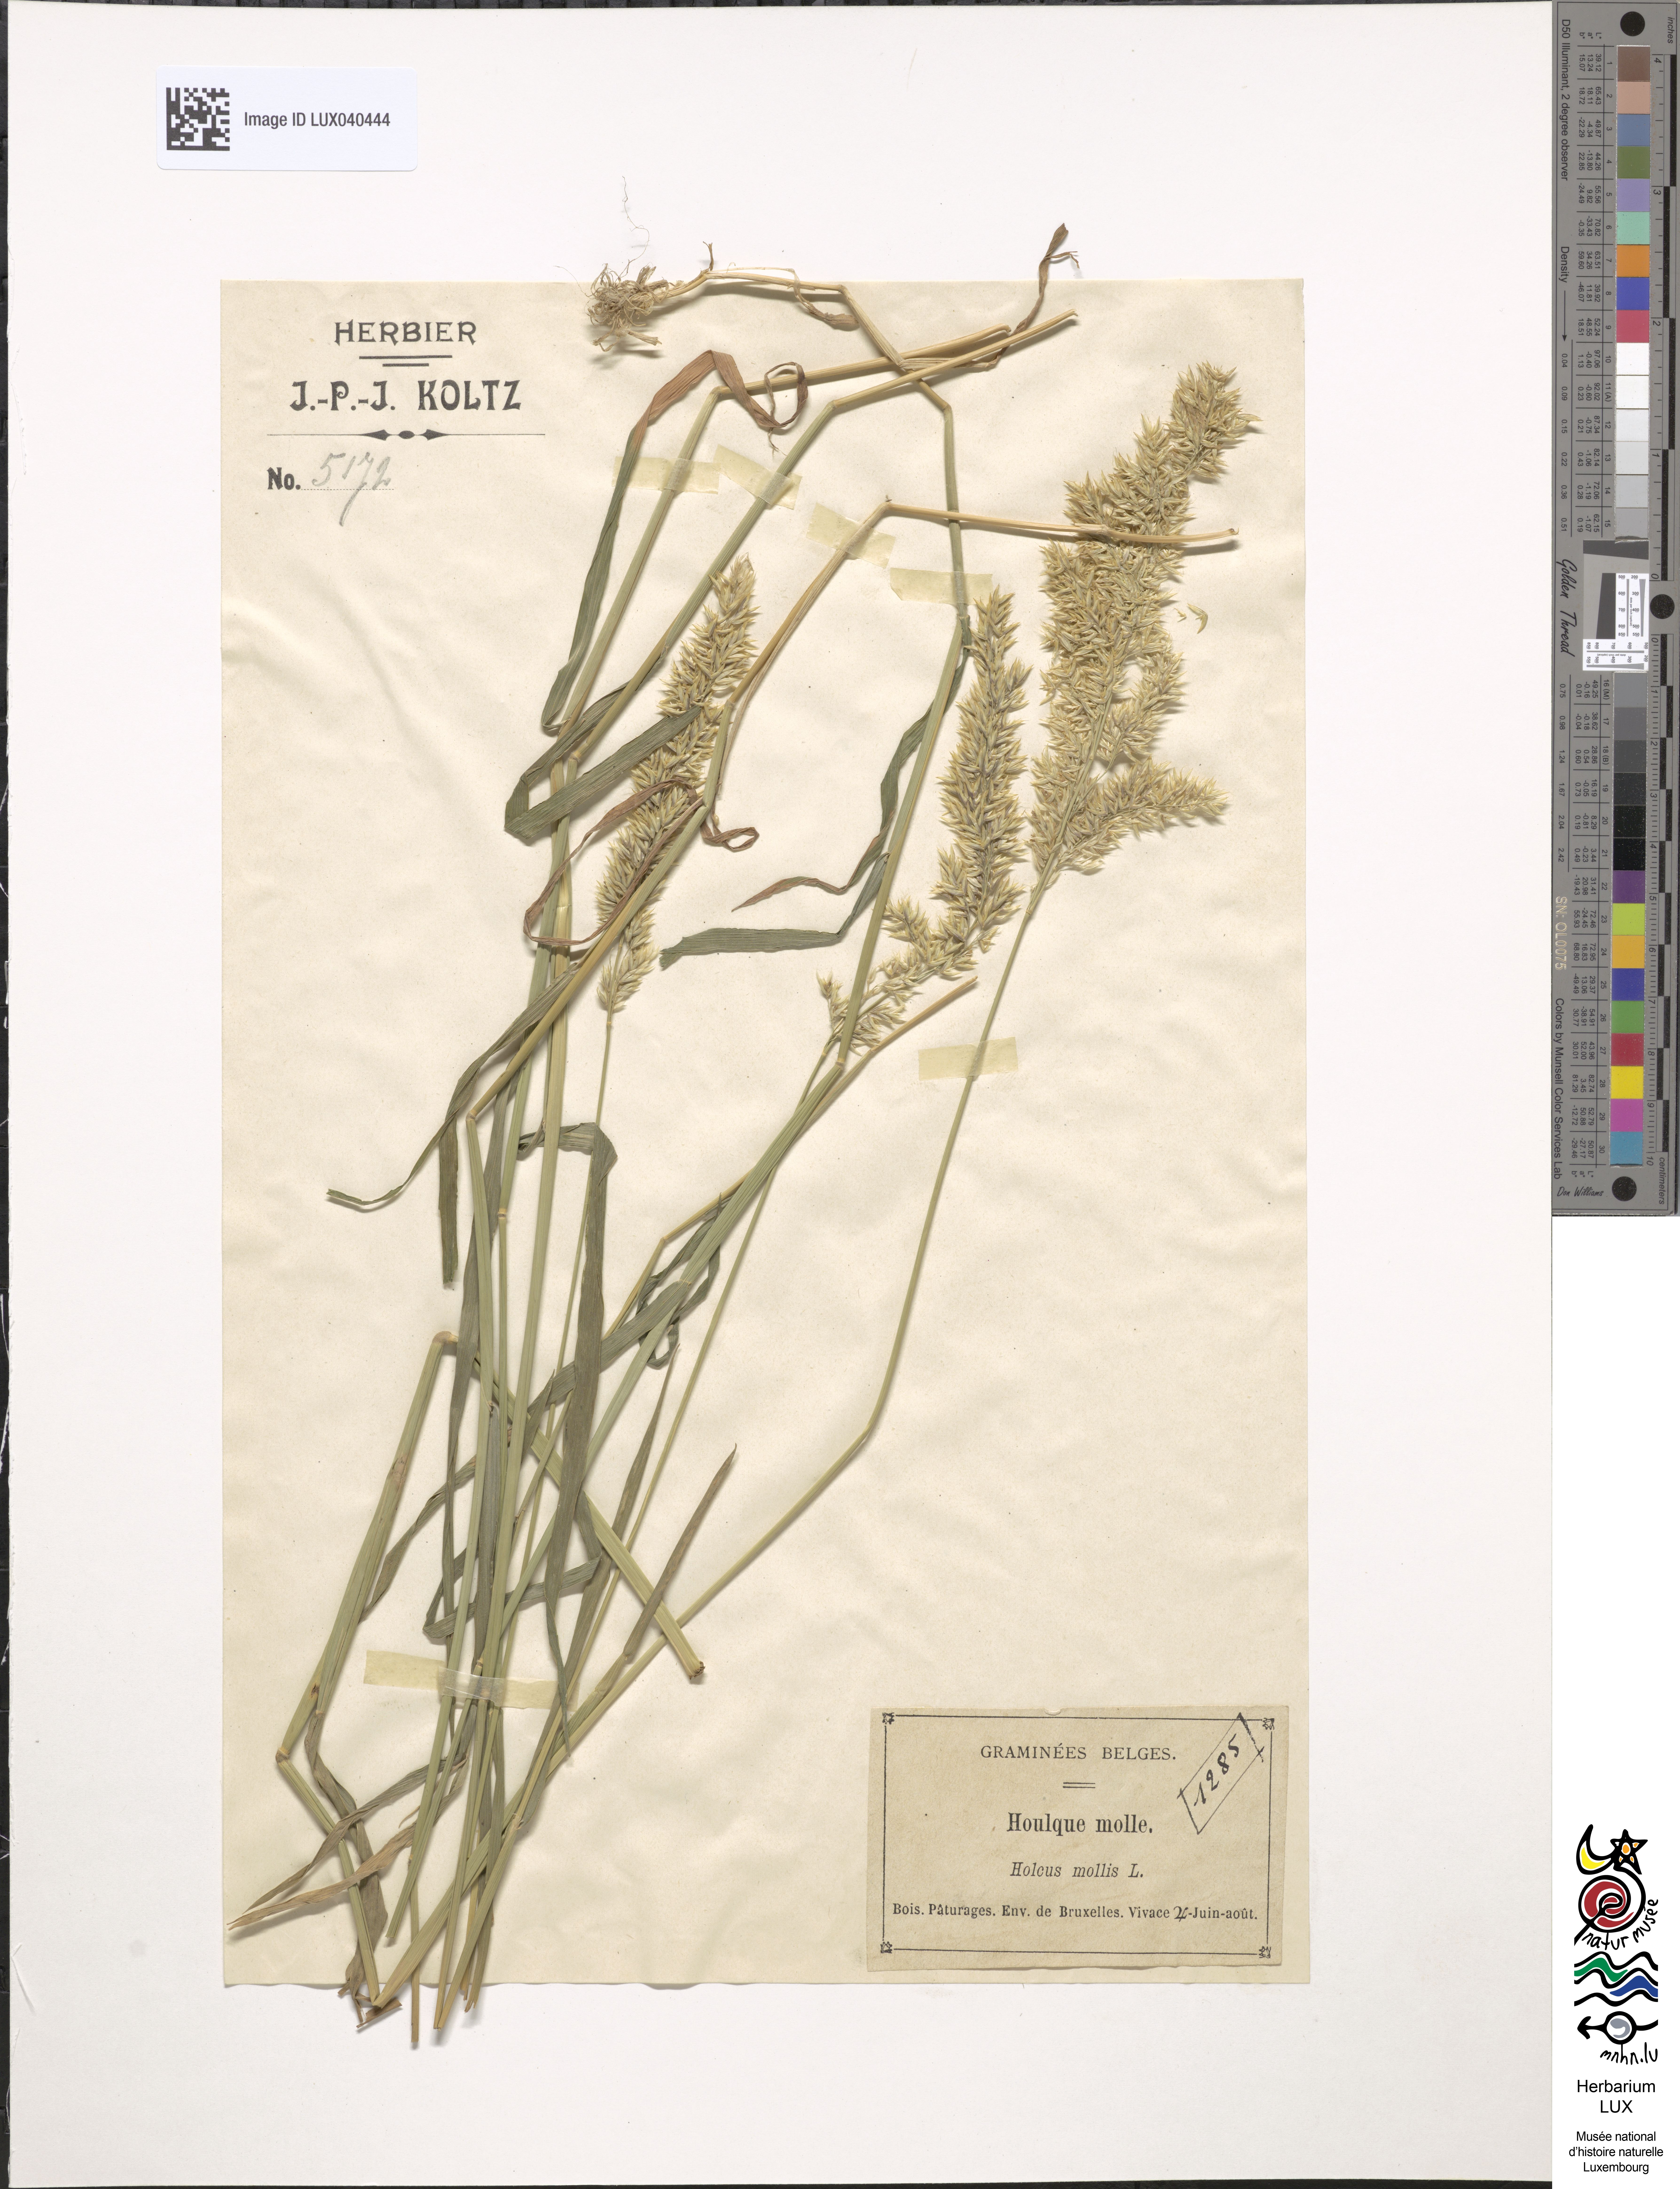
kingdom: Plantae
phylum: Tracheophyta
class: Liliopsida
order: Poales
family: Poaceae
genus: Holcus
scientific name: Holcus mollis
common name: Creeping velvetgrass
